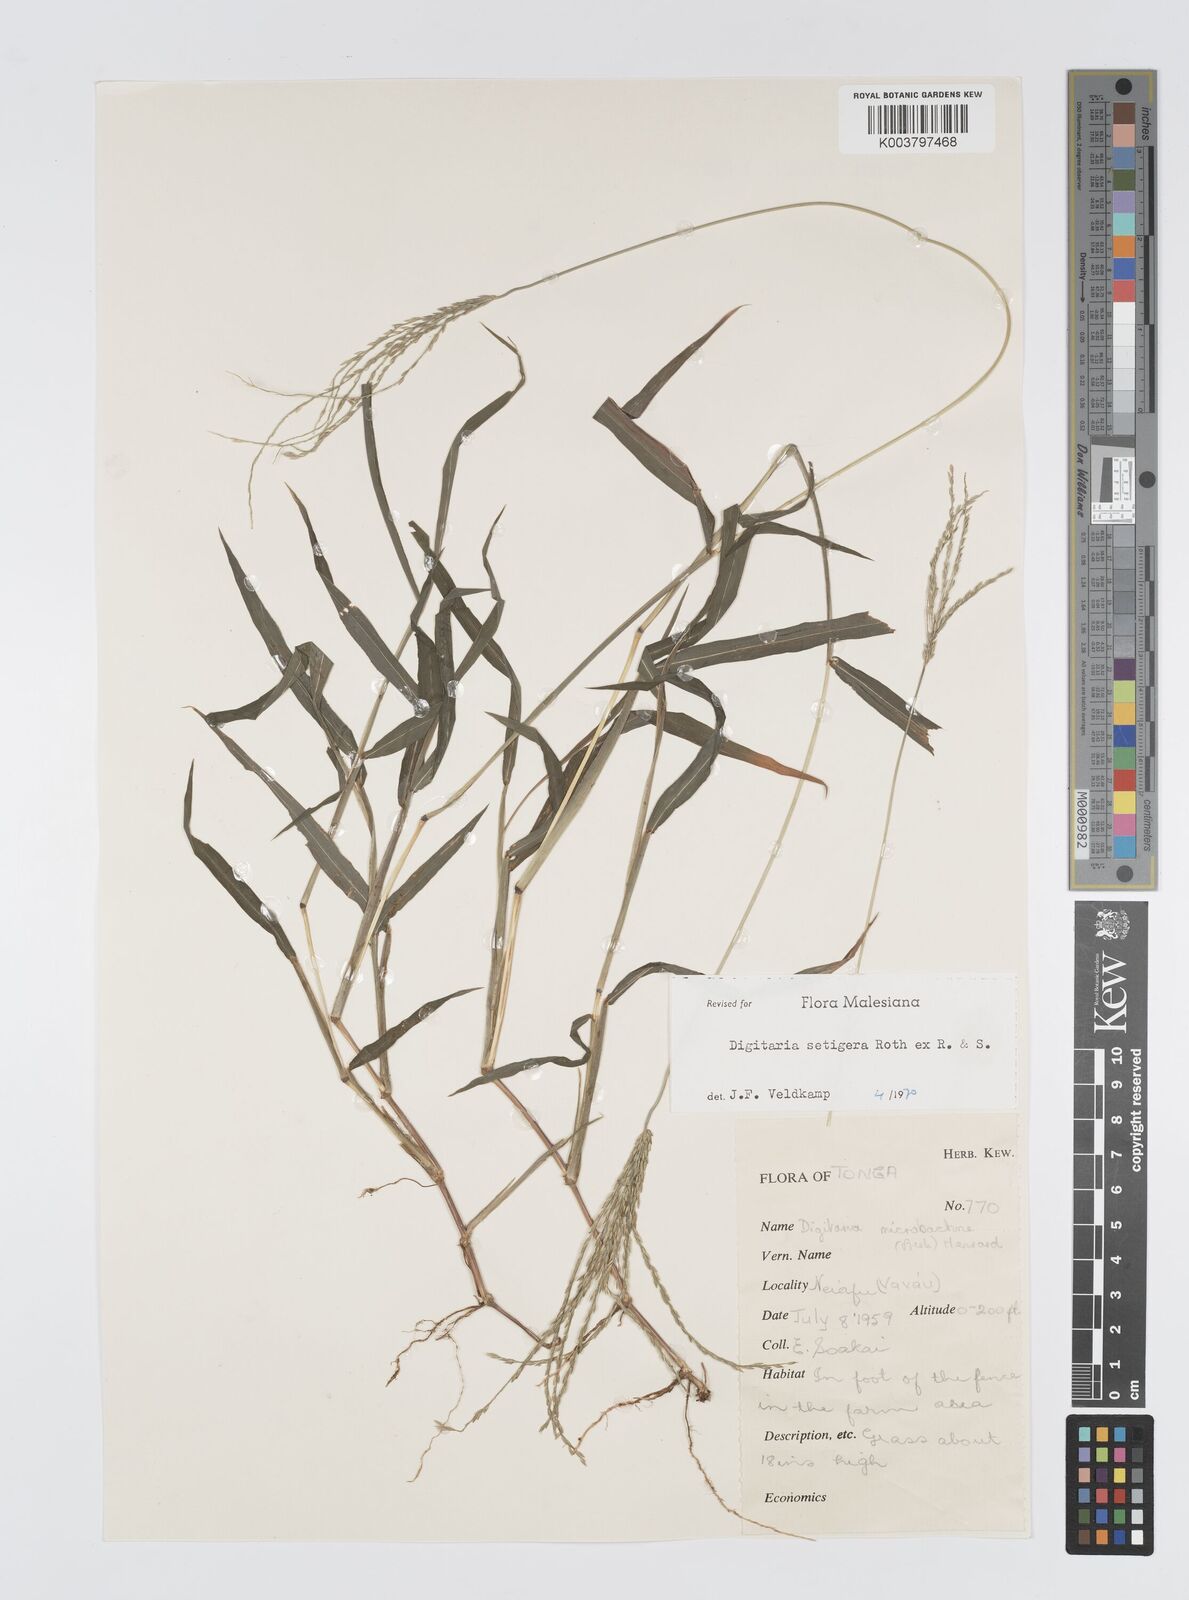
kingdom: Plantae
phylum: Tracheophyta
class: Liliopsida
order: Poales
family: Poaceae
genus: Digitaria
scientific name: Digitaria setigera
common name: East indian crabgrass
